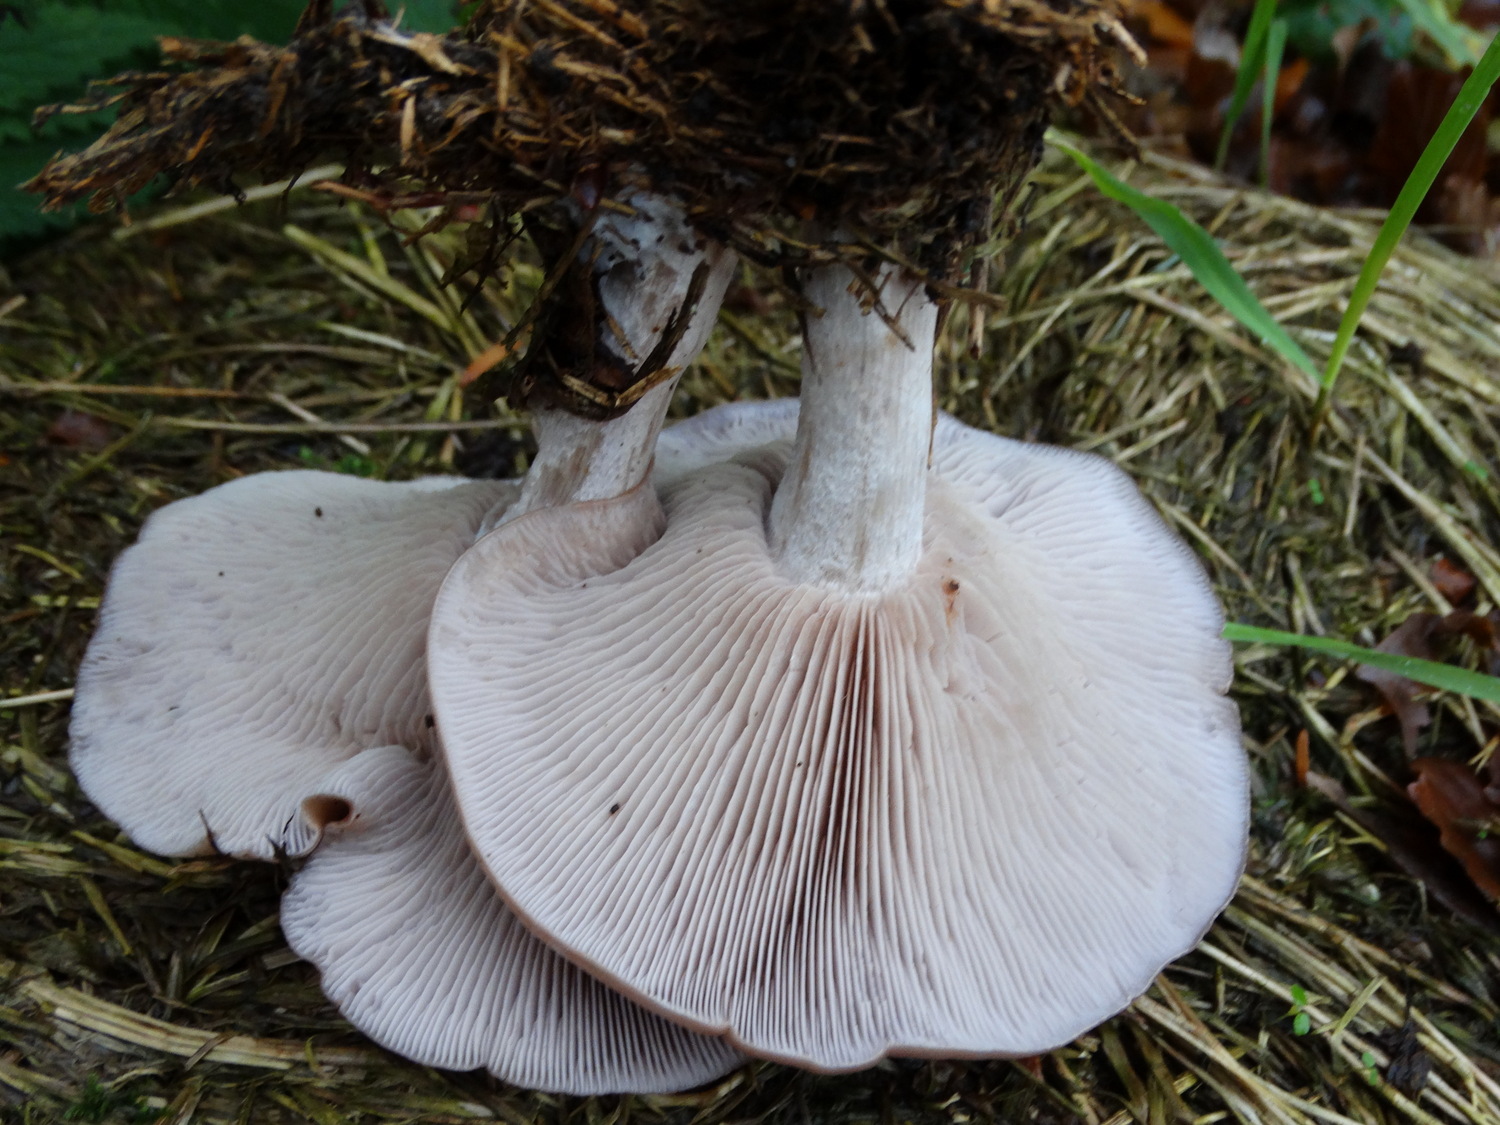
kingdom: Fungi
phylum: Basidiomycota
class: Agaricomycetes
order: Agaricales
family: Tricholomataceae
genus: Lepista
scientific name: Lepista nuda
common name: violet hekseringshat
